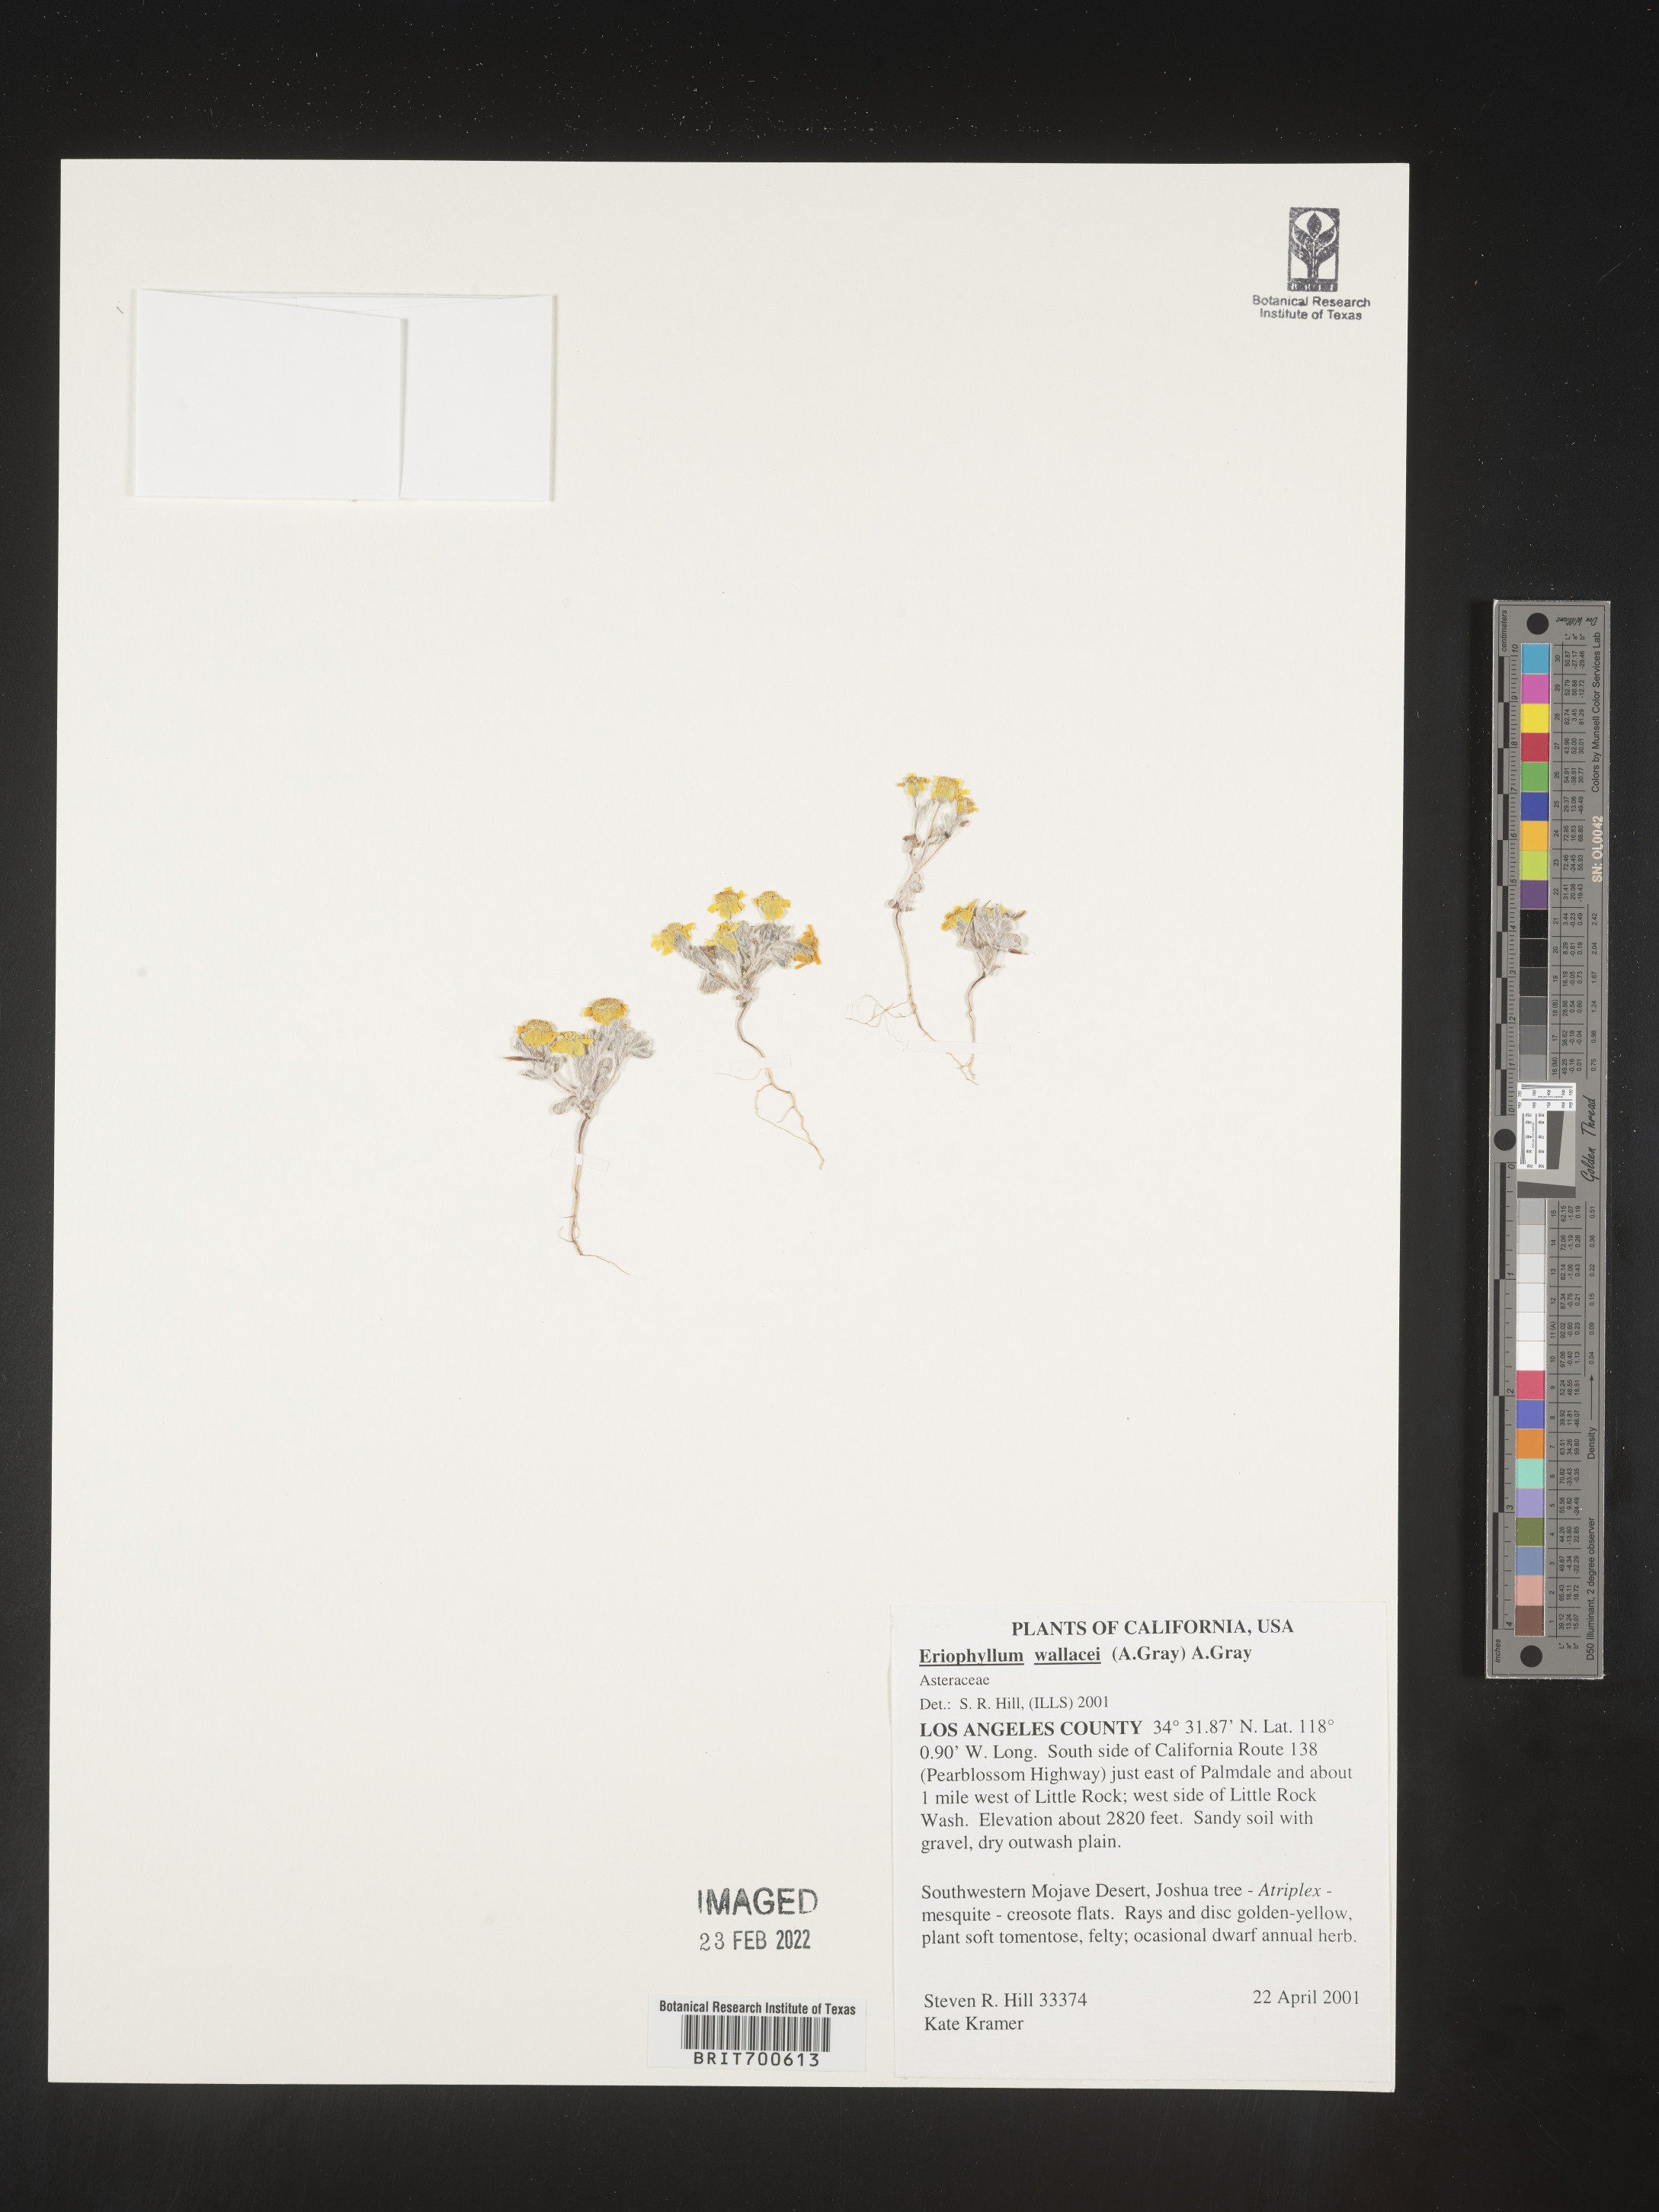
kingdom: Plantae
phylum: Tracheophyta
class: Magnoliopsida
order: Asterales
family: Asteraceae
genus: Eriophyllum
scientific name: Eriophyllum wallacei
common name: Wallace's woolly daisy
